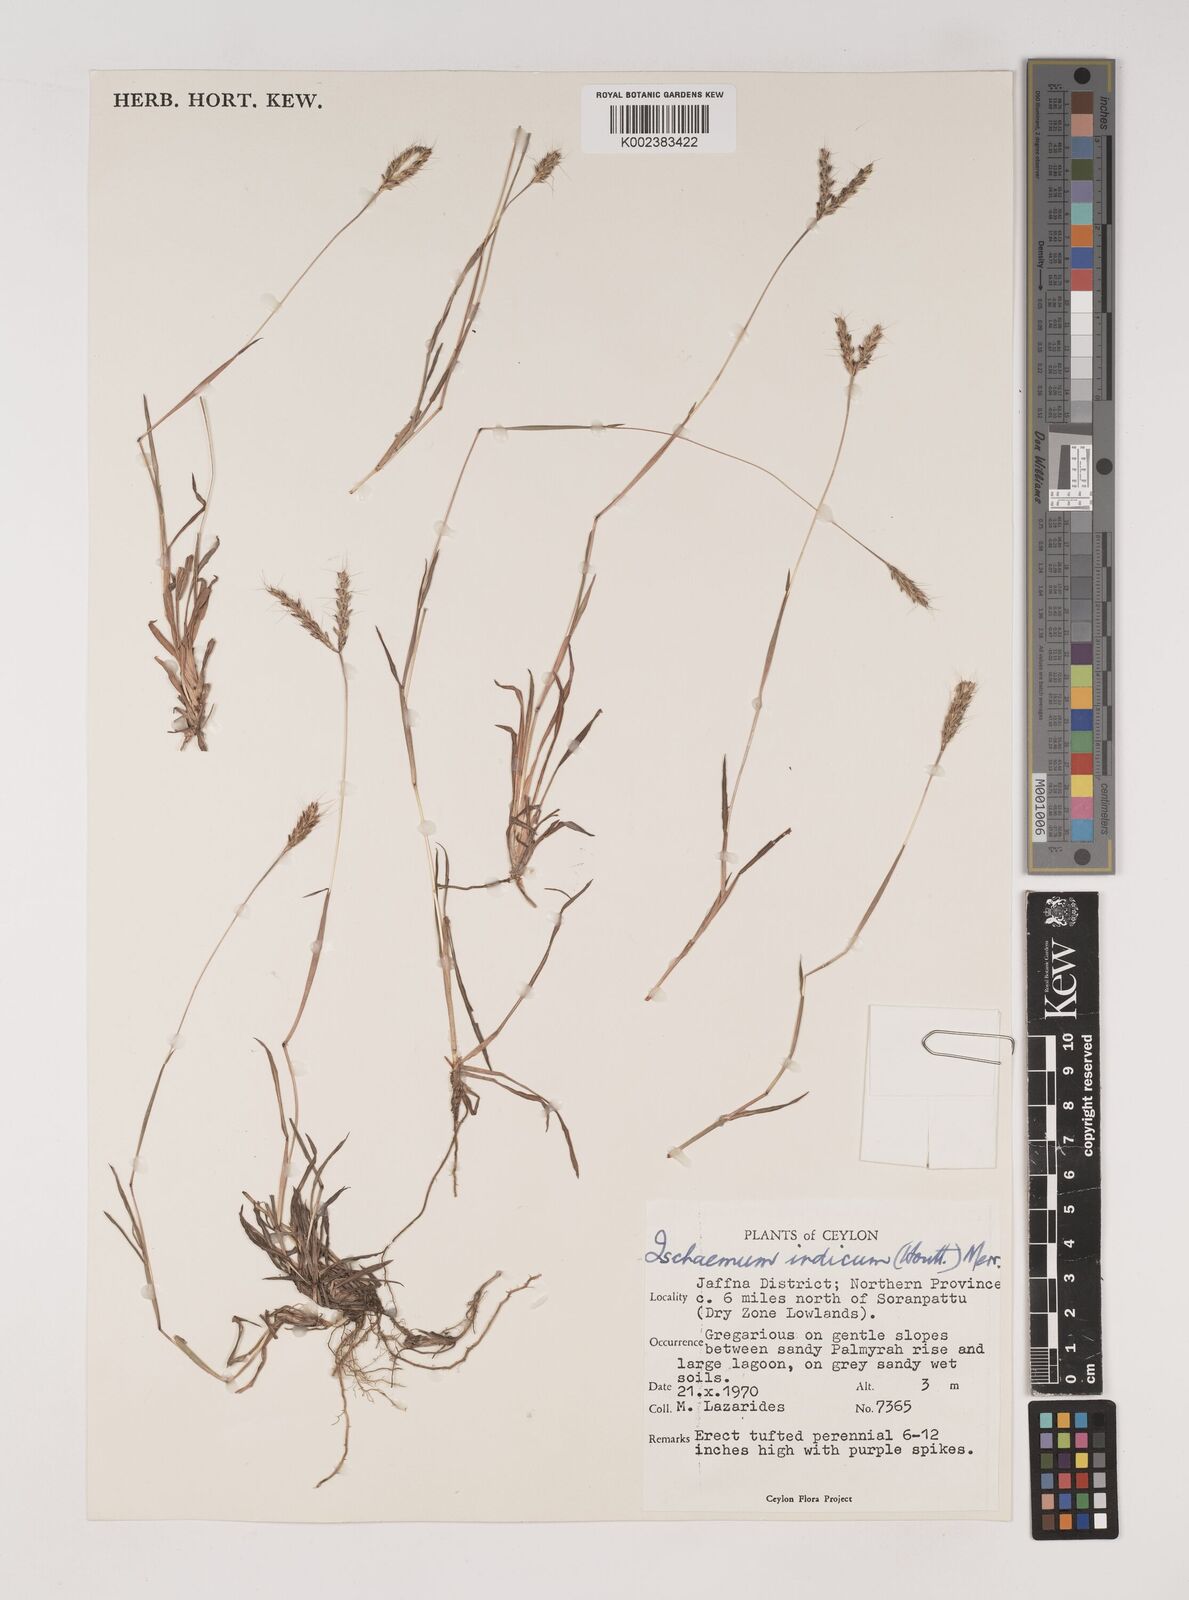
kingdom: Plantae
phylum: Tracheophyta
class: Liliopsida
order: Poales
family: Poaceae
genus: Polytrias
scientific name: Polytrias indica
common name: Indian murainagrass
